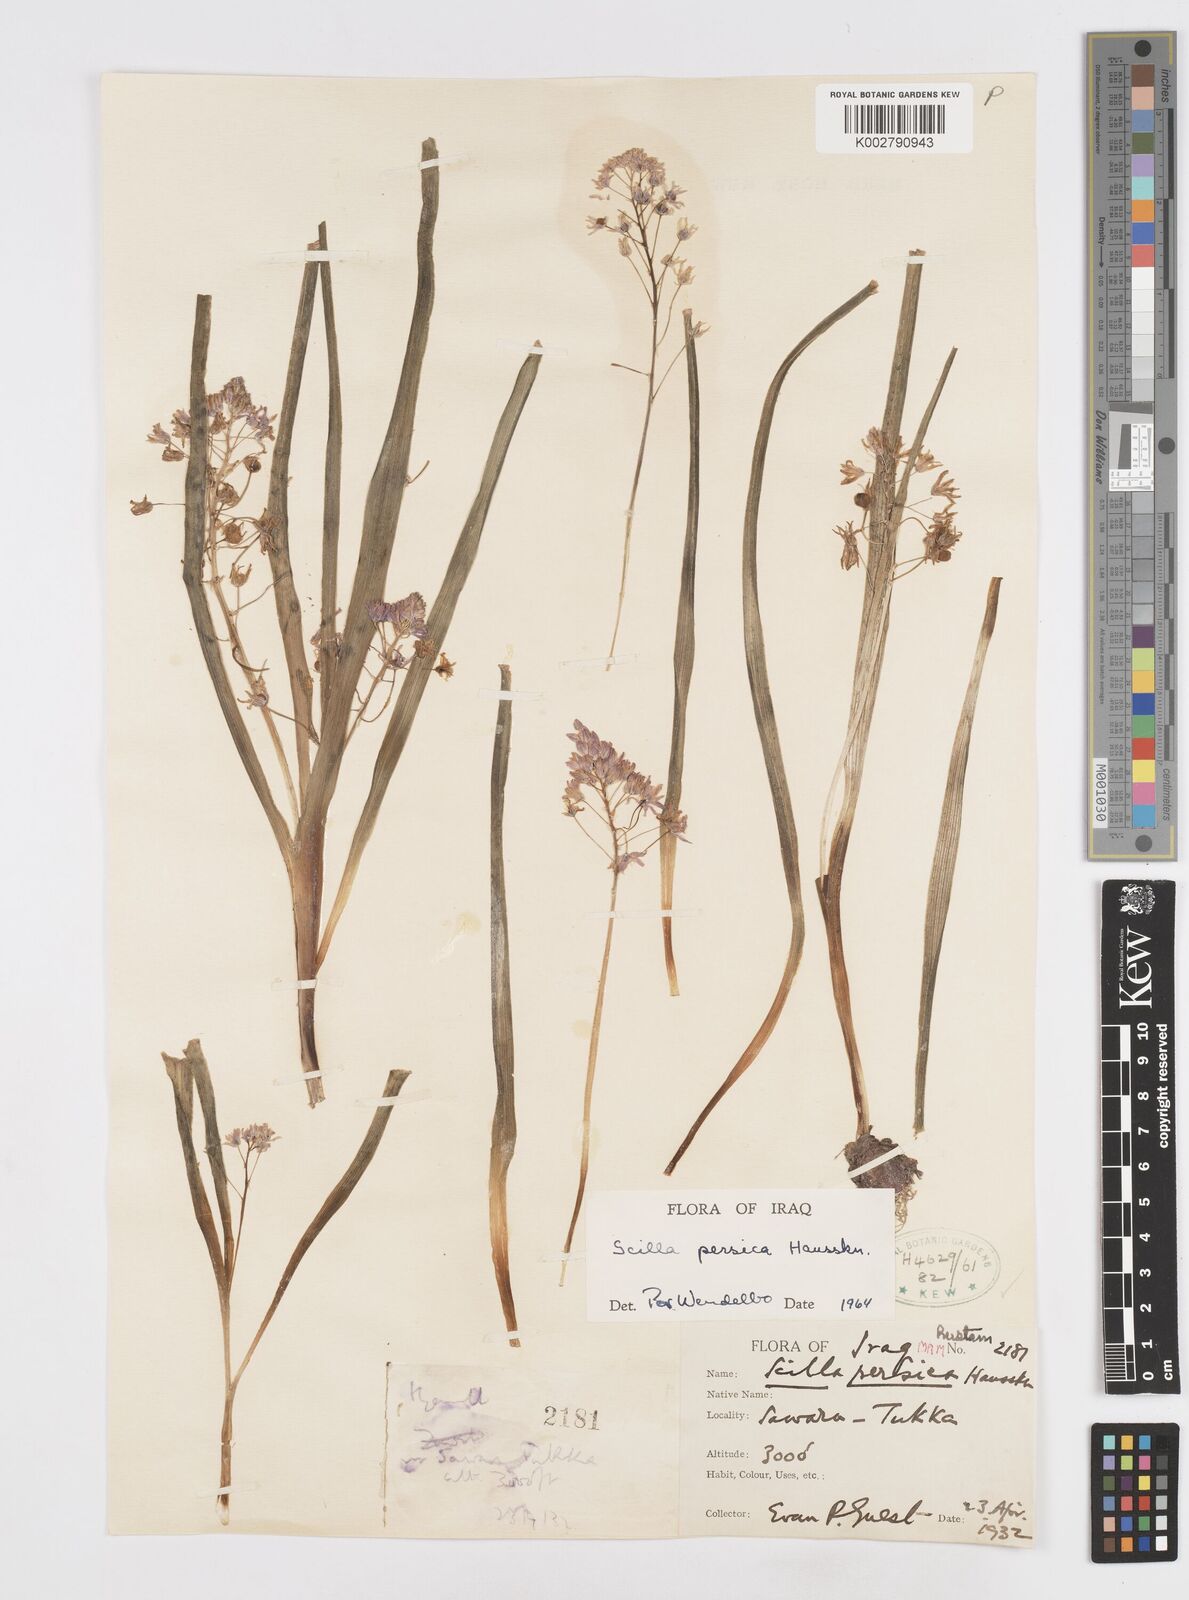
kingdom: Plantae
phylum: Tracheophyta
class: Liliopsida
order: Asparagales
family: Asparagaceae
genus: Zagrosia
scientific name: Zagrosia persica
